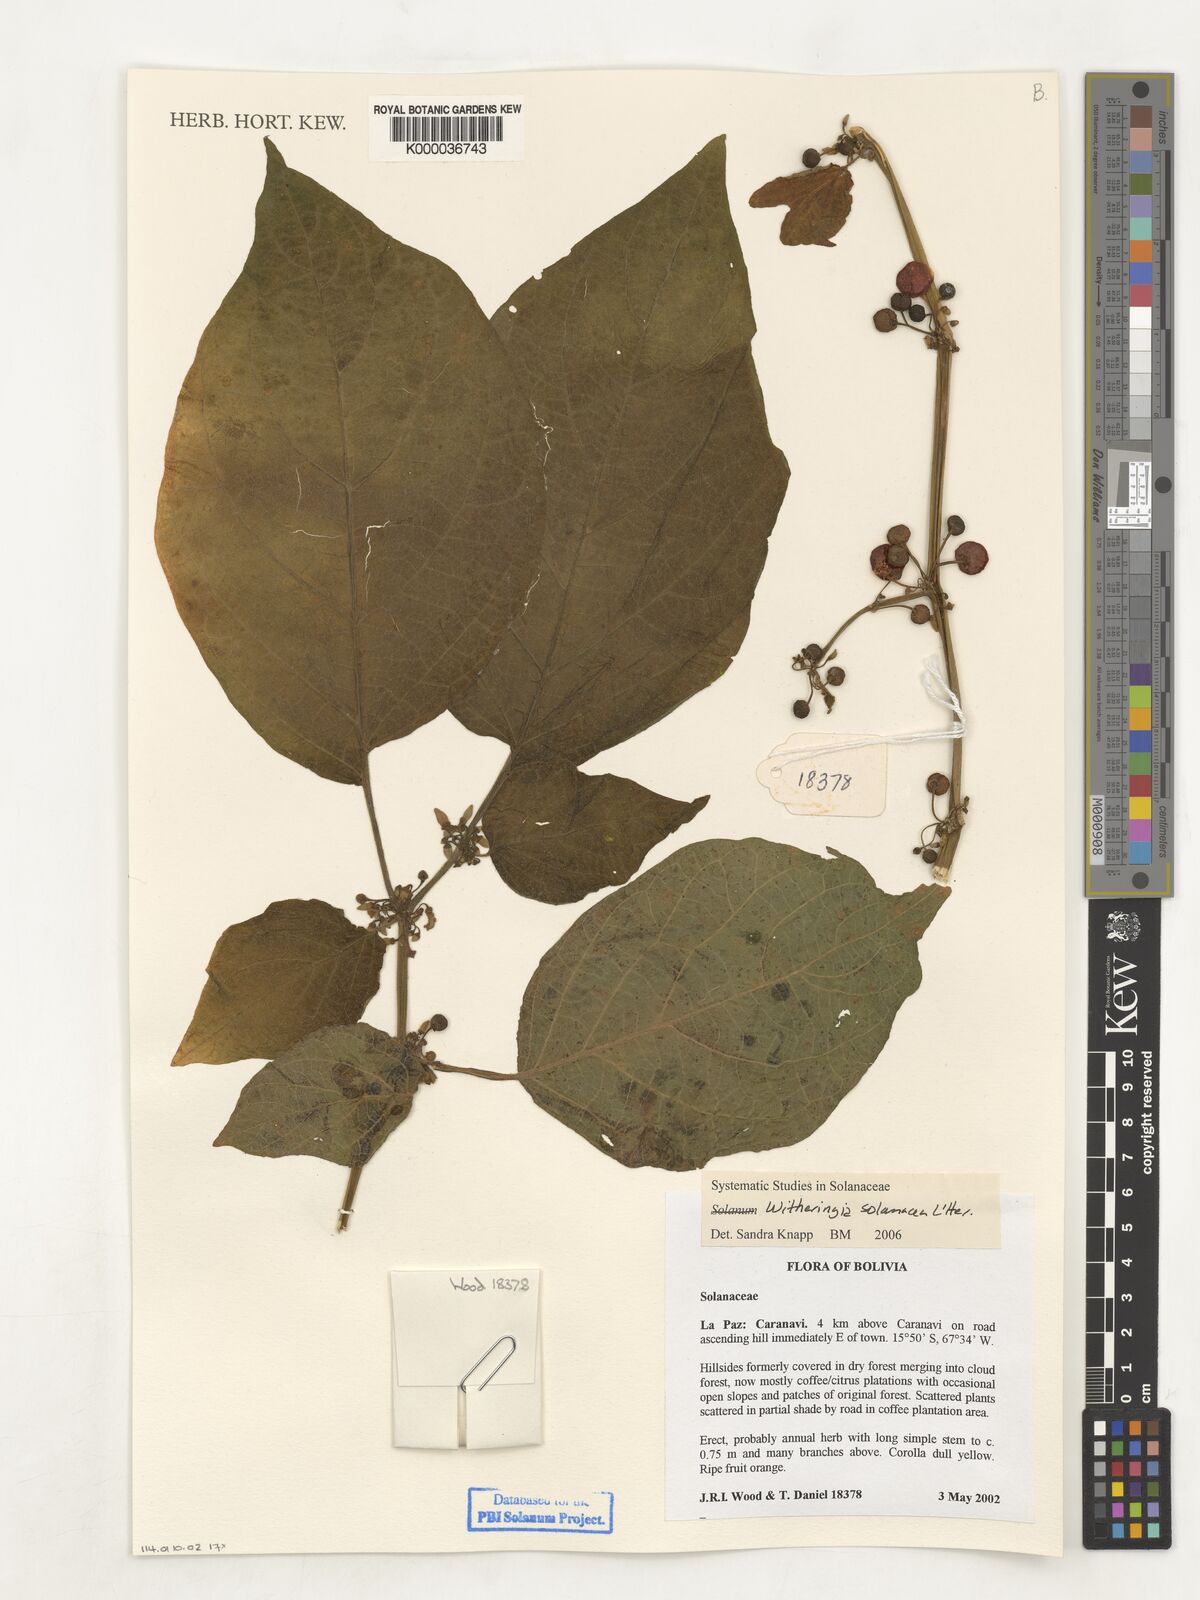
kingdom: Plantae
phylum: Tracheophyta
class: Magnoliopsida
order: Solanales
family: Solanaceae
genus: Witheringia
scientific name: Witheringia
